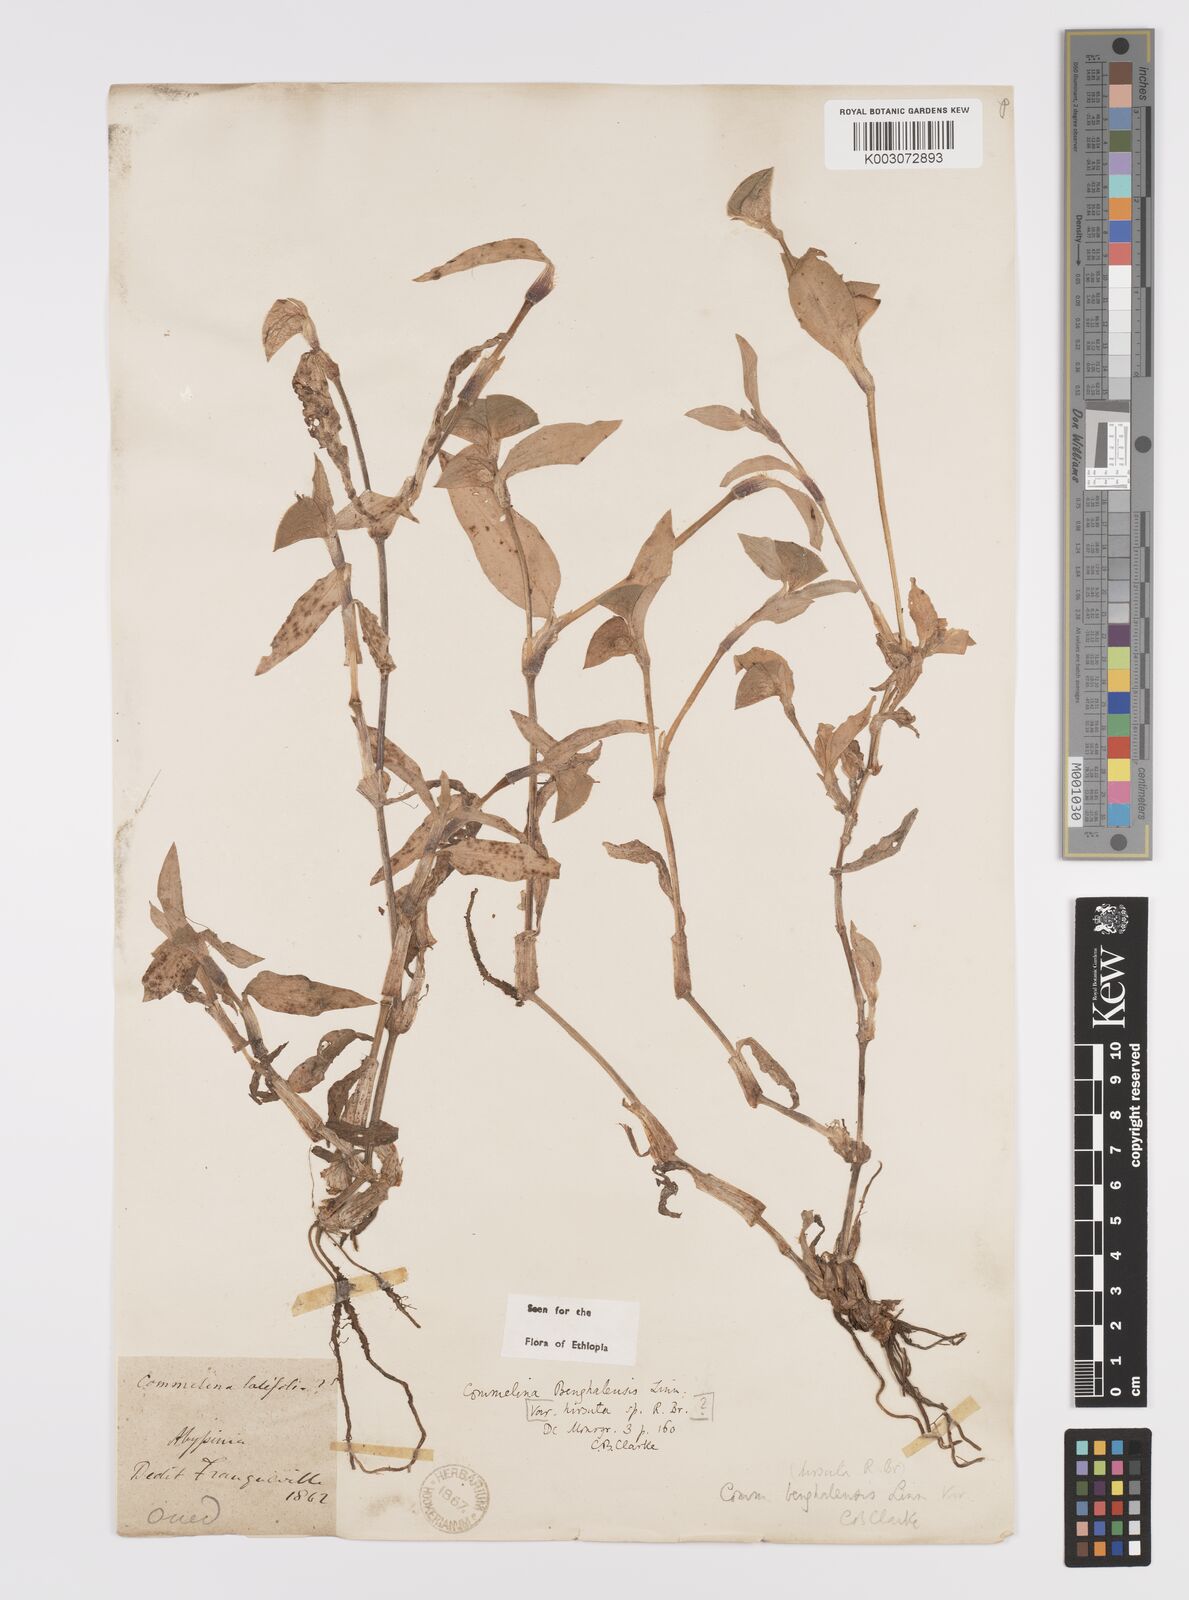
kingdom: Plantae
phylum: Tracheophyta
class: Liliopsida
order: Commelinales
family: Commelinaceae
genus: Commelina
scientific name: Commelina benghalensis
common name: Jio
